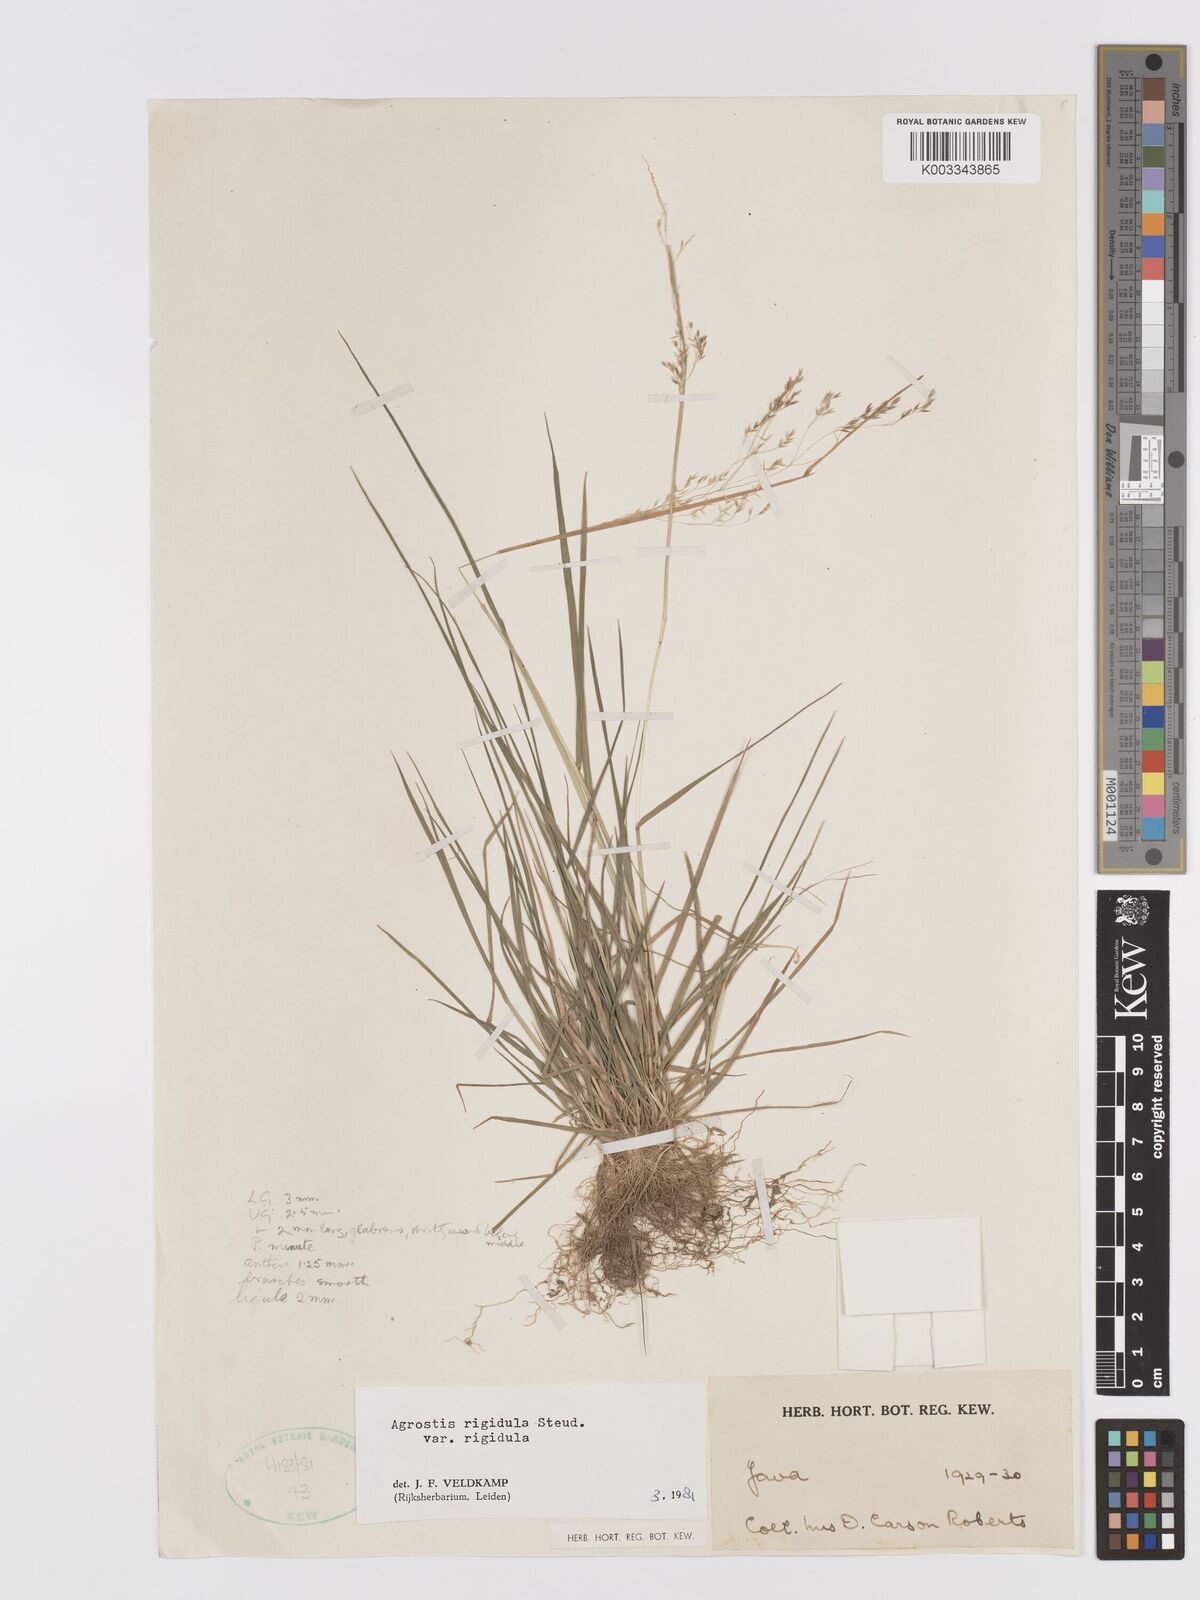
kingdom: Plantae
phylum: Tracheophyta
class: Liliopsida
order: Poales
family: Poaceae
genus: Agrostis
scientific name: Agrostis infirma
